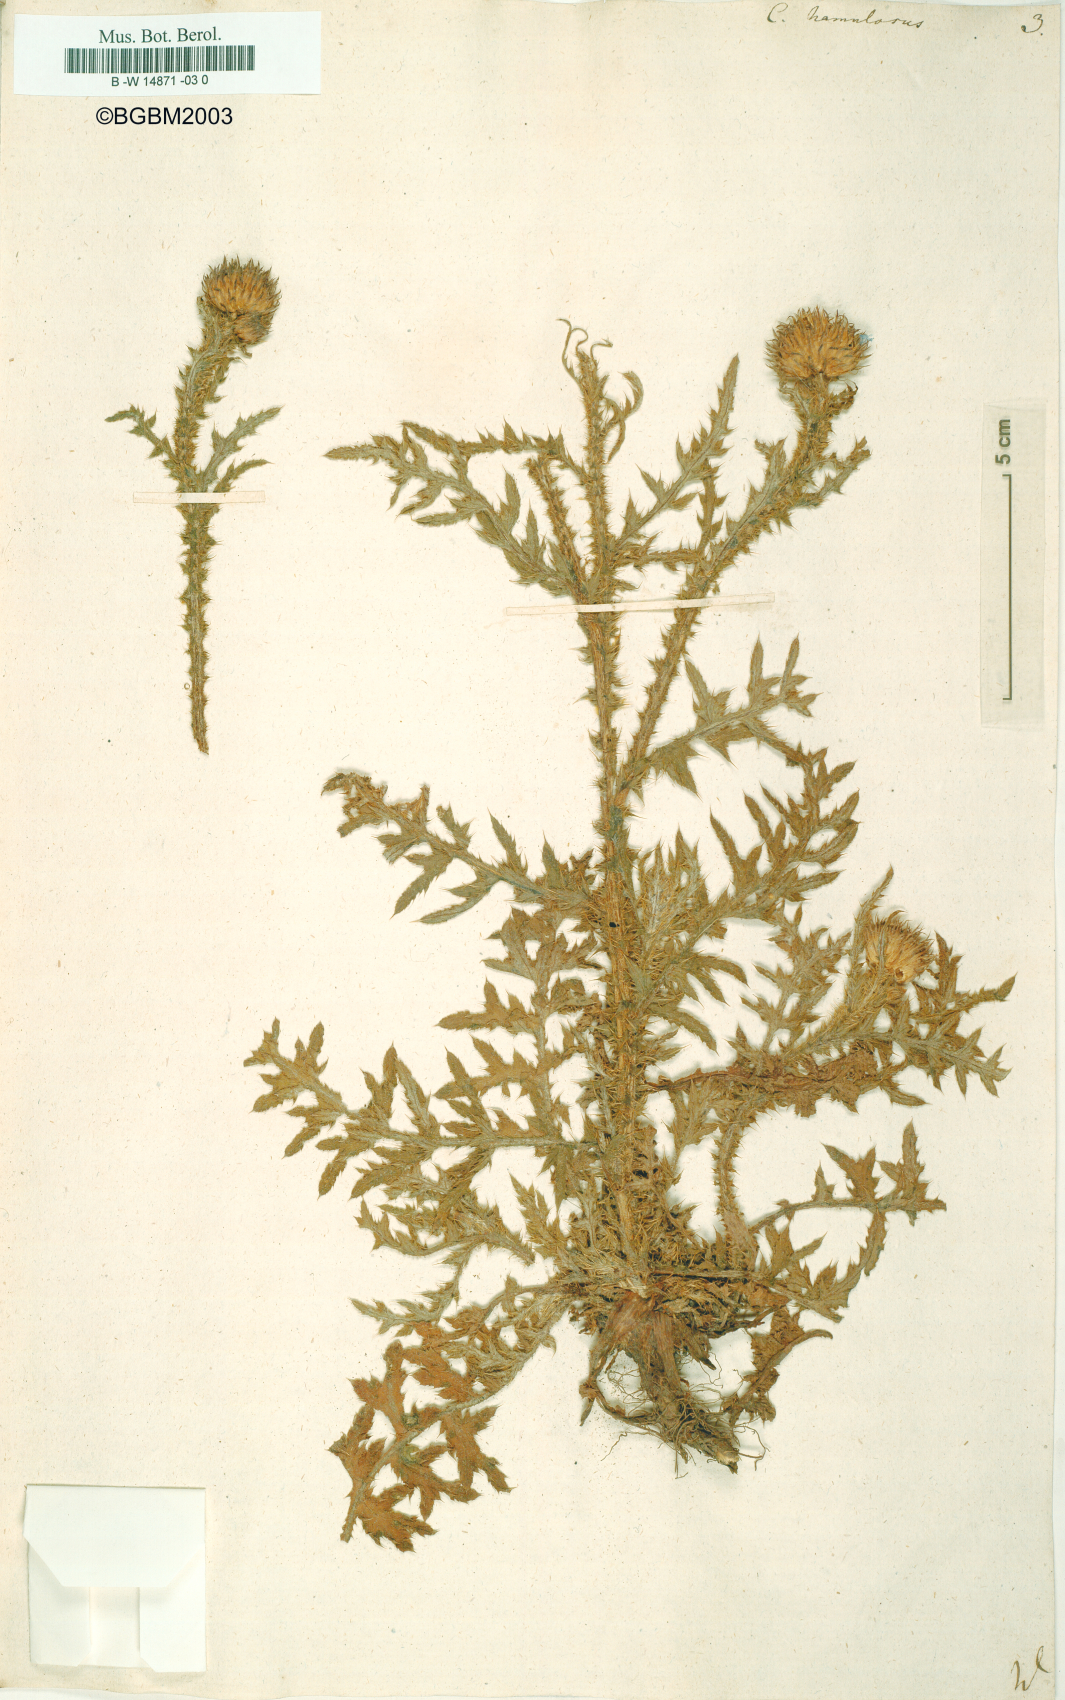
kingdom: Plantae
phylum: Tracheophyta
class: Magnoliopsida
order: Asterales
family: Asteraceae
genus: Carduus
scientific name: Carduus hamulosus
